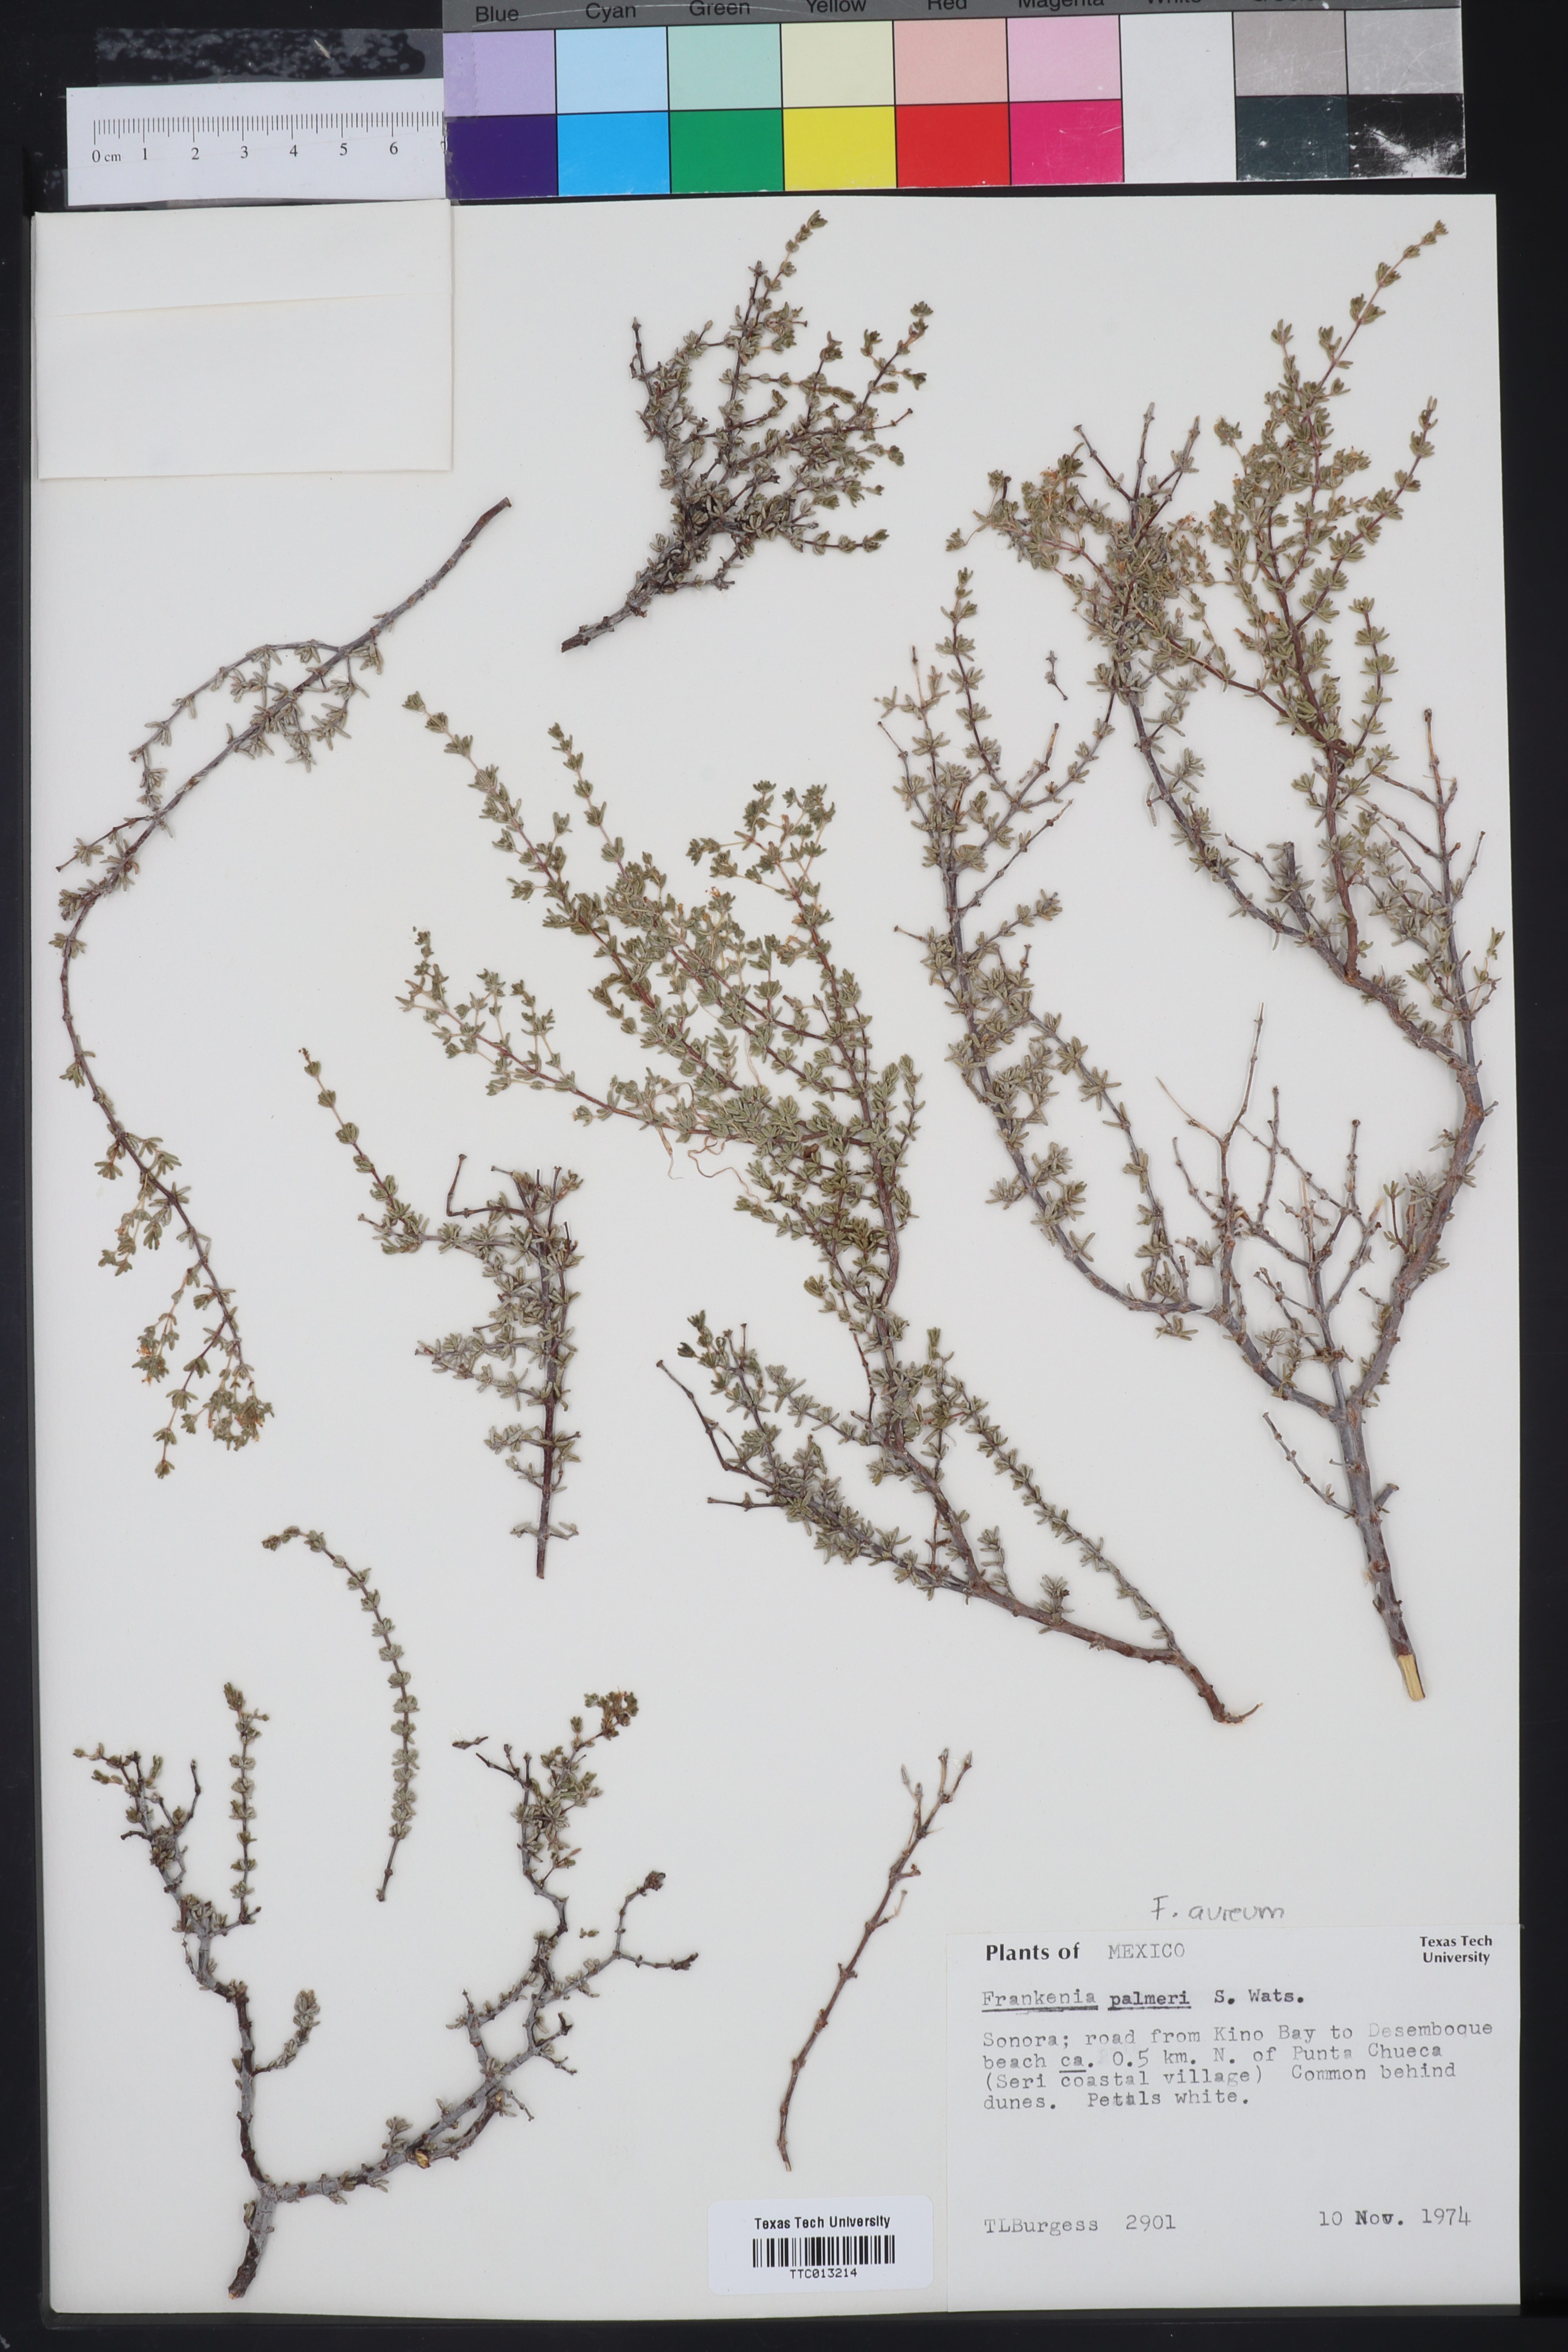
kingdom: Plantae
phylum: Tracheophyta
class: Magnoliopsida
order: Caryophyllales
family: Frankeniaceae
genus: Frankenia
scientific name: Frankenia palmeri
